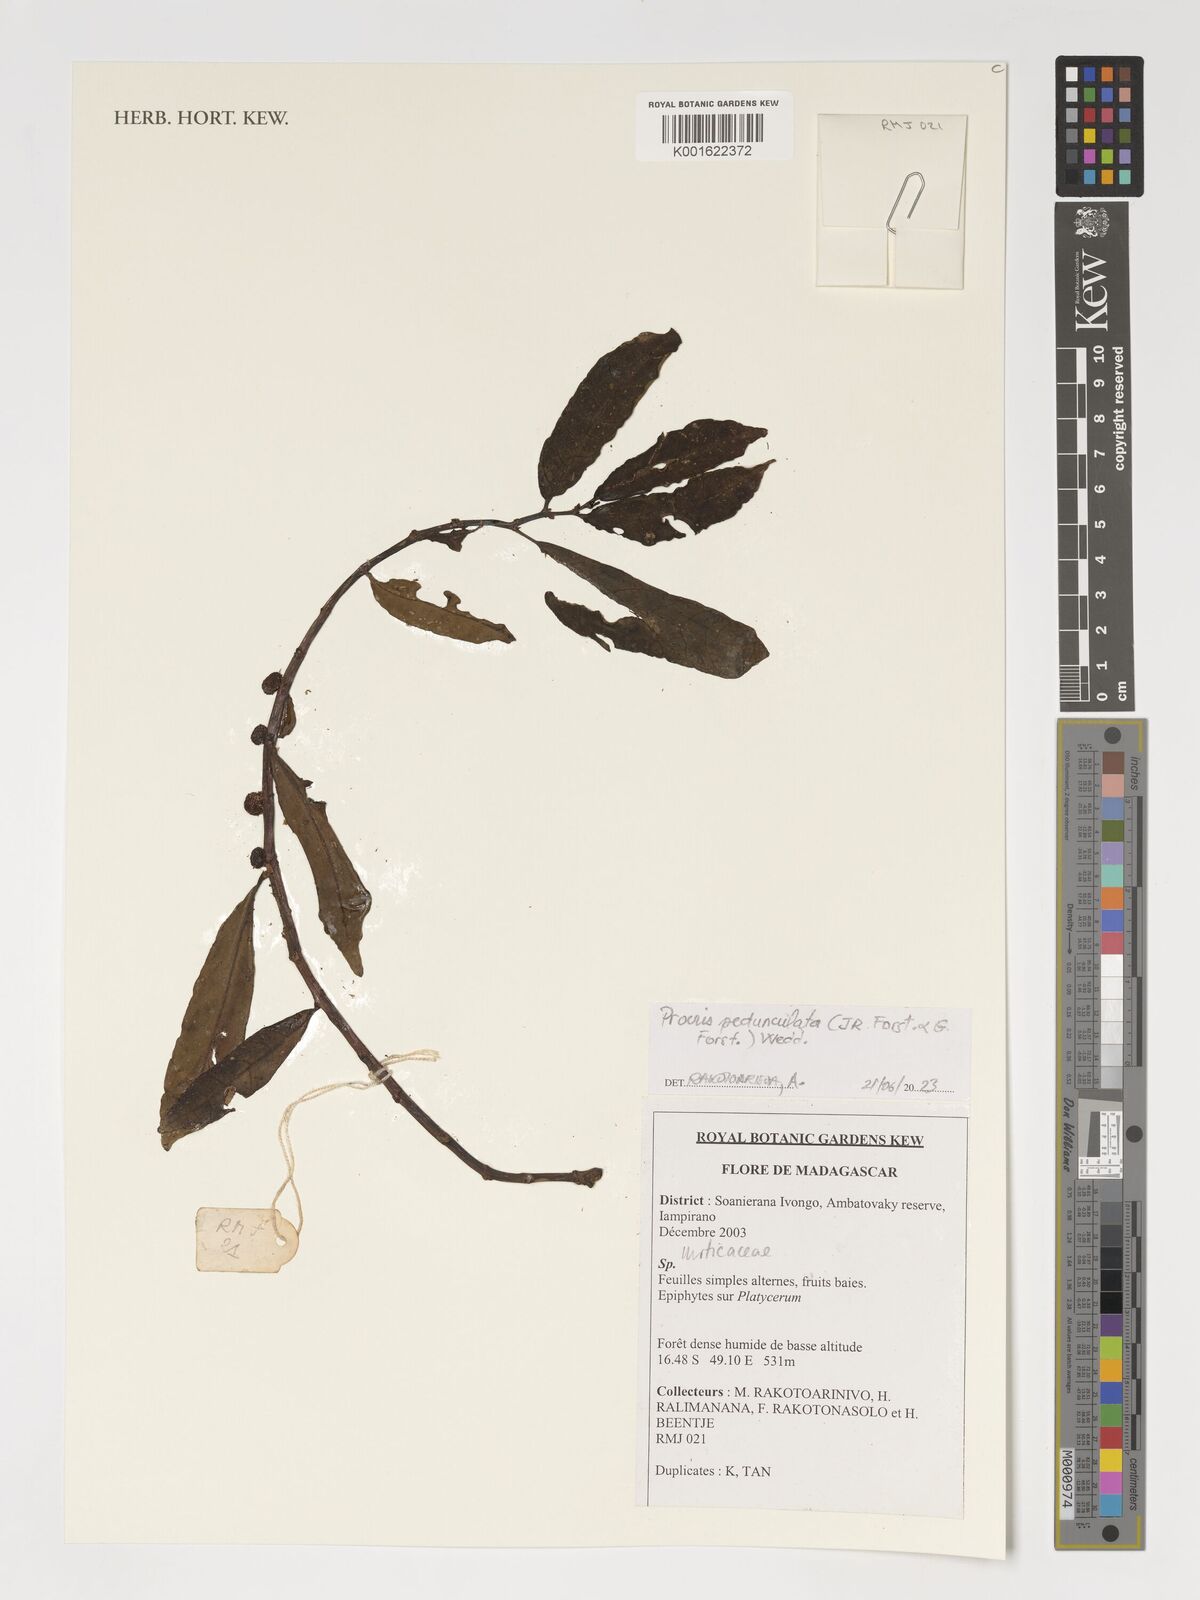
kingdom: Plantae
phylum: Tracheophyta
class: Magnoliopsida
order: Rosales
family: Urticaceae
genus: Procris
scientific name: Procris pedunculata
